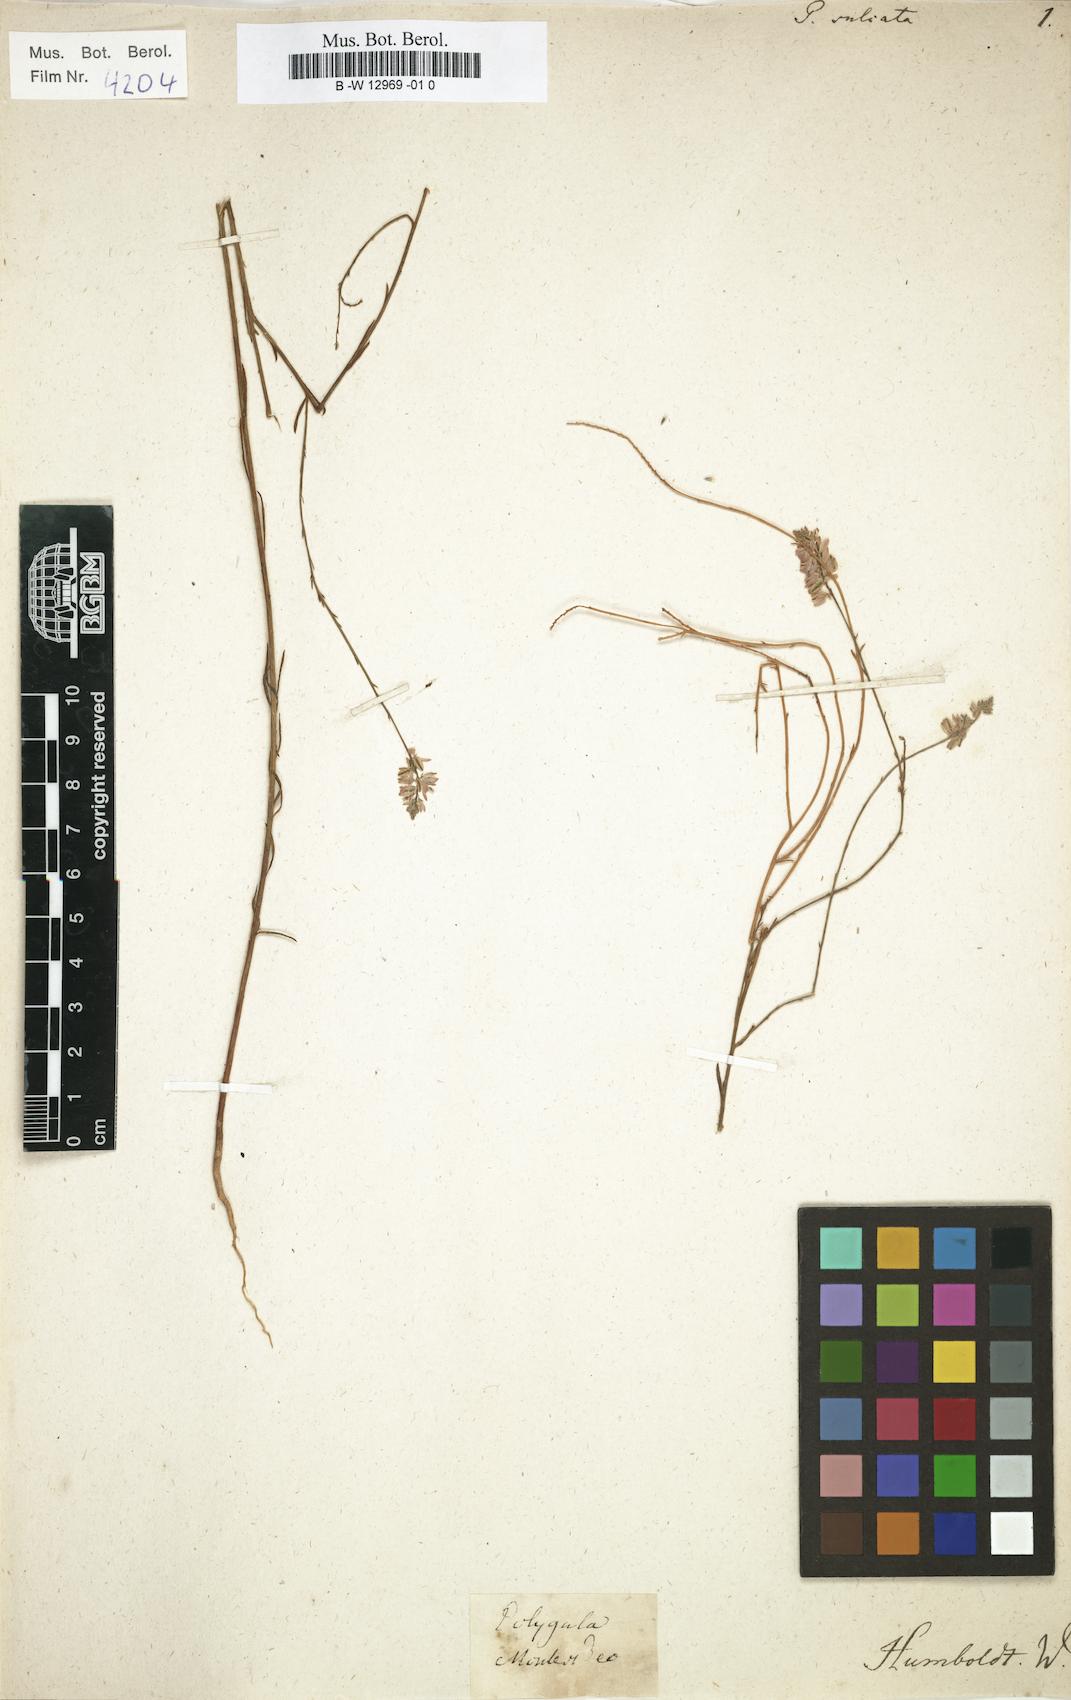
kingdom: Plantae
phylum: Tracheophyta
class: Magnoliopsida
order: Fabales
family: Polygalaceae
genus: Polygala
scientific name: Polygala trichosperma
